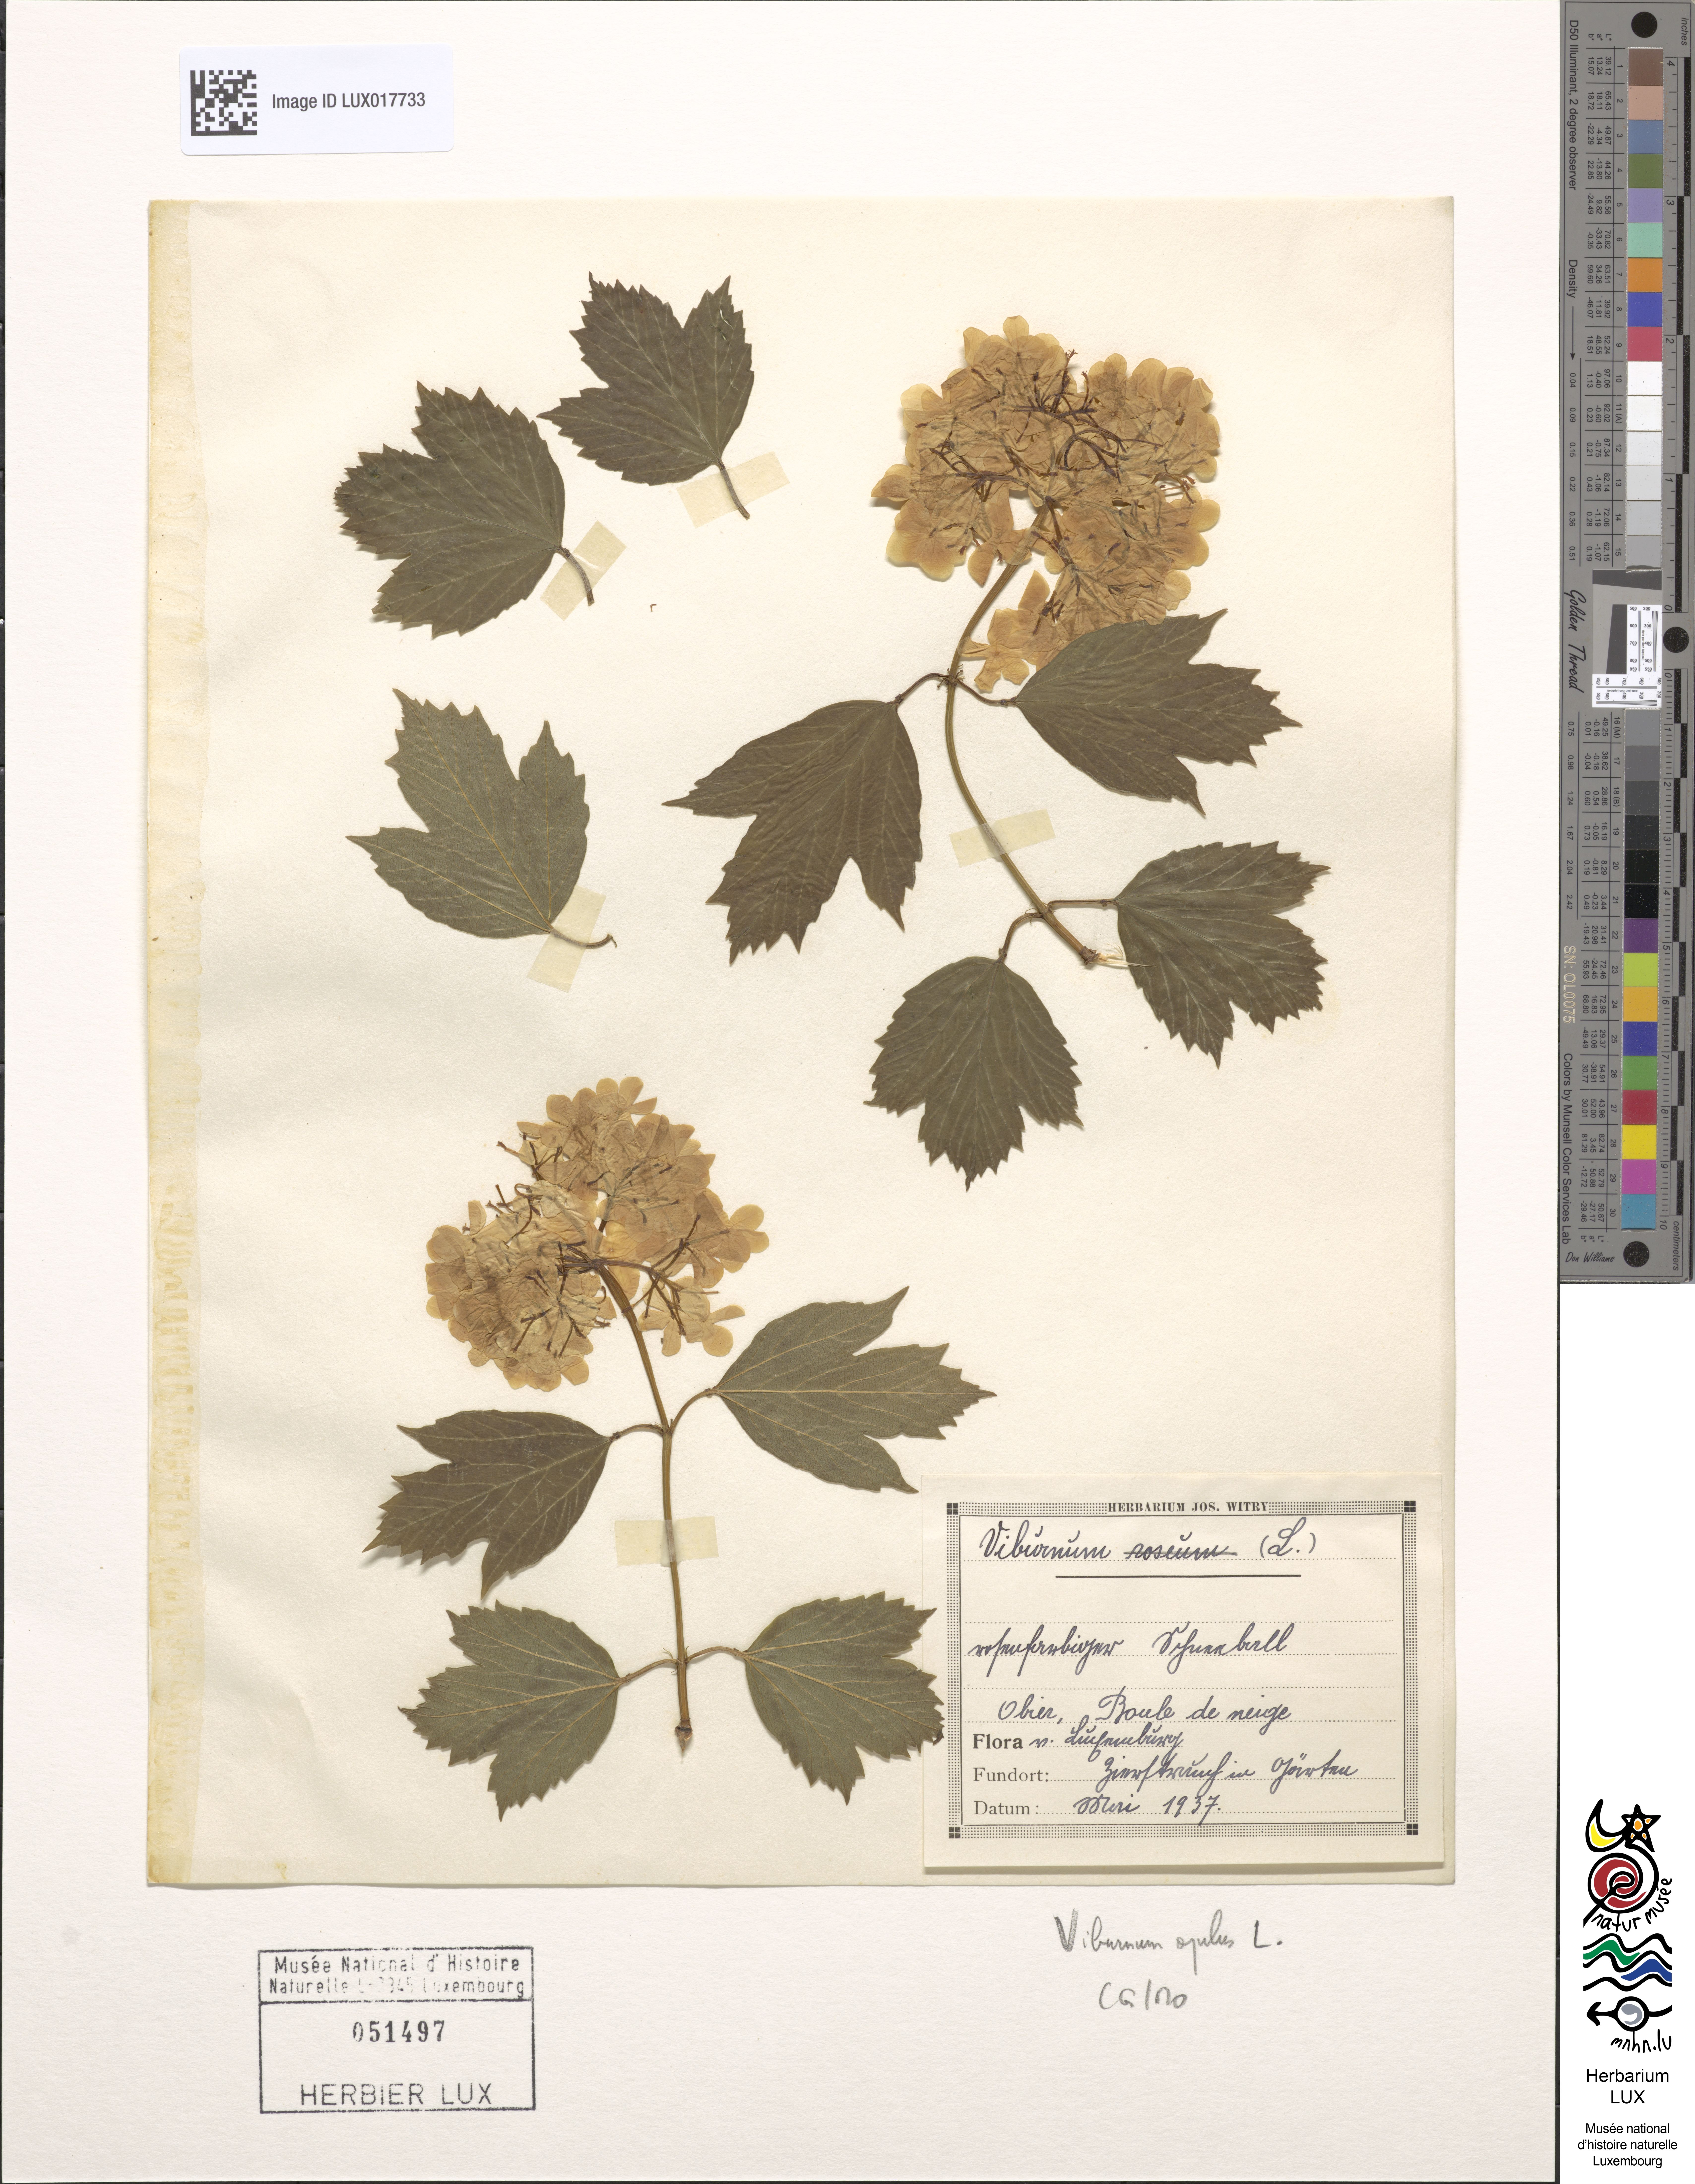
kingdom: Plantae
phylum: Tracheophyta
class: Magnoliopsida
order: Dipsacales
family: Viburnaceae
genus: Viburnum
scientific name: Viburnum opulus
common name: Guelder-rose
